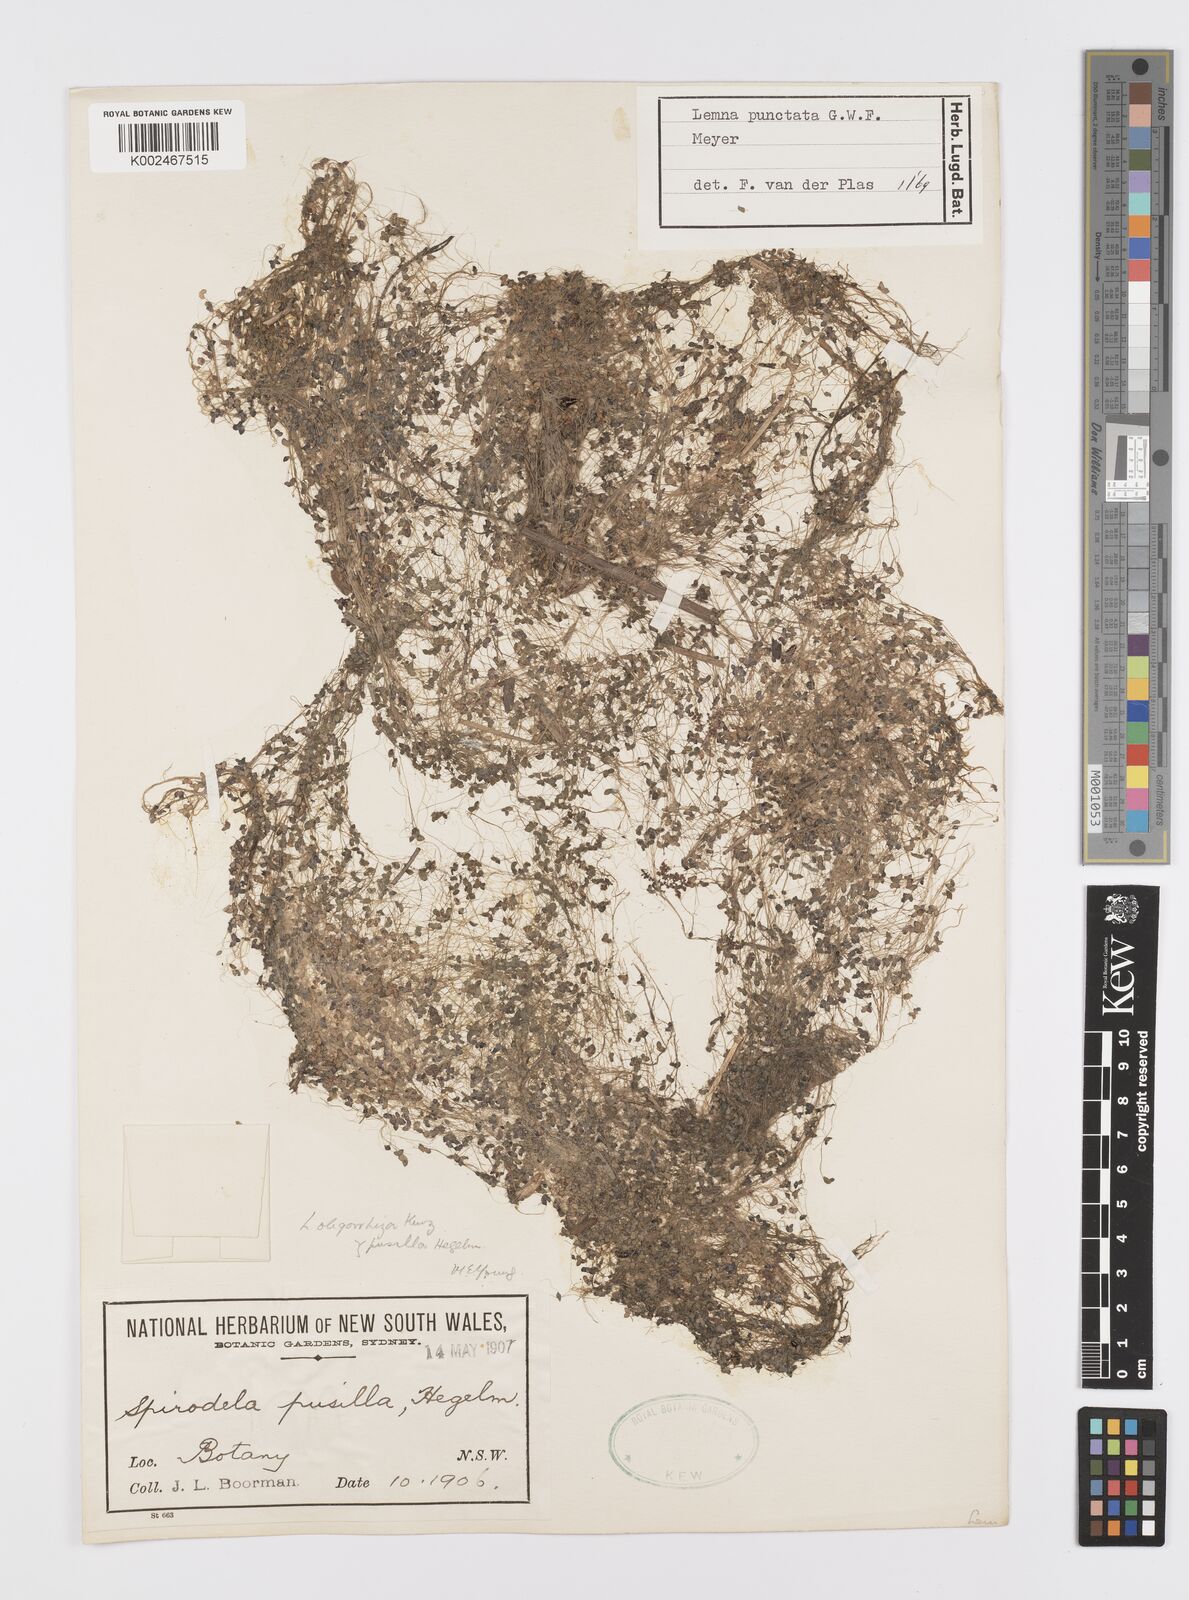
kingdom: Plantae
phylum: Tracheophyta
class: Liliopsida
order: Alismatales
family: Araceae
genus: Spirodela
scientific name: Spirodela punctata
